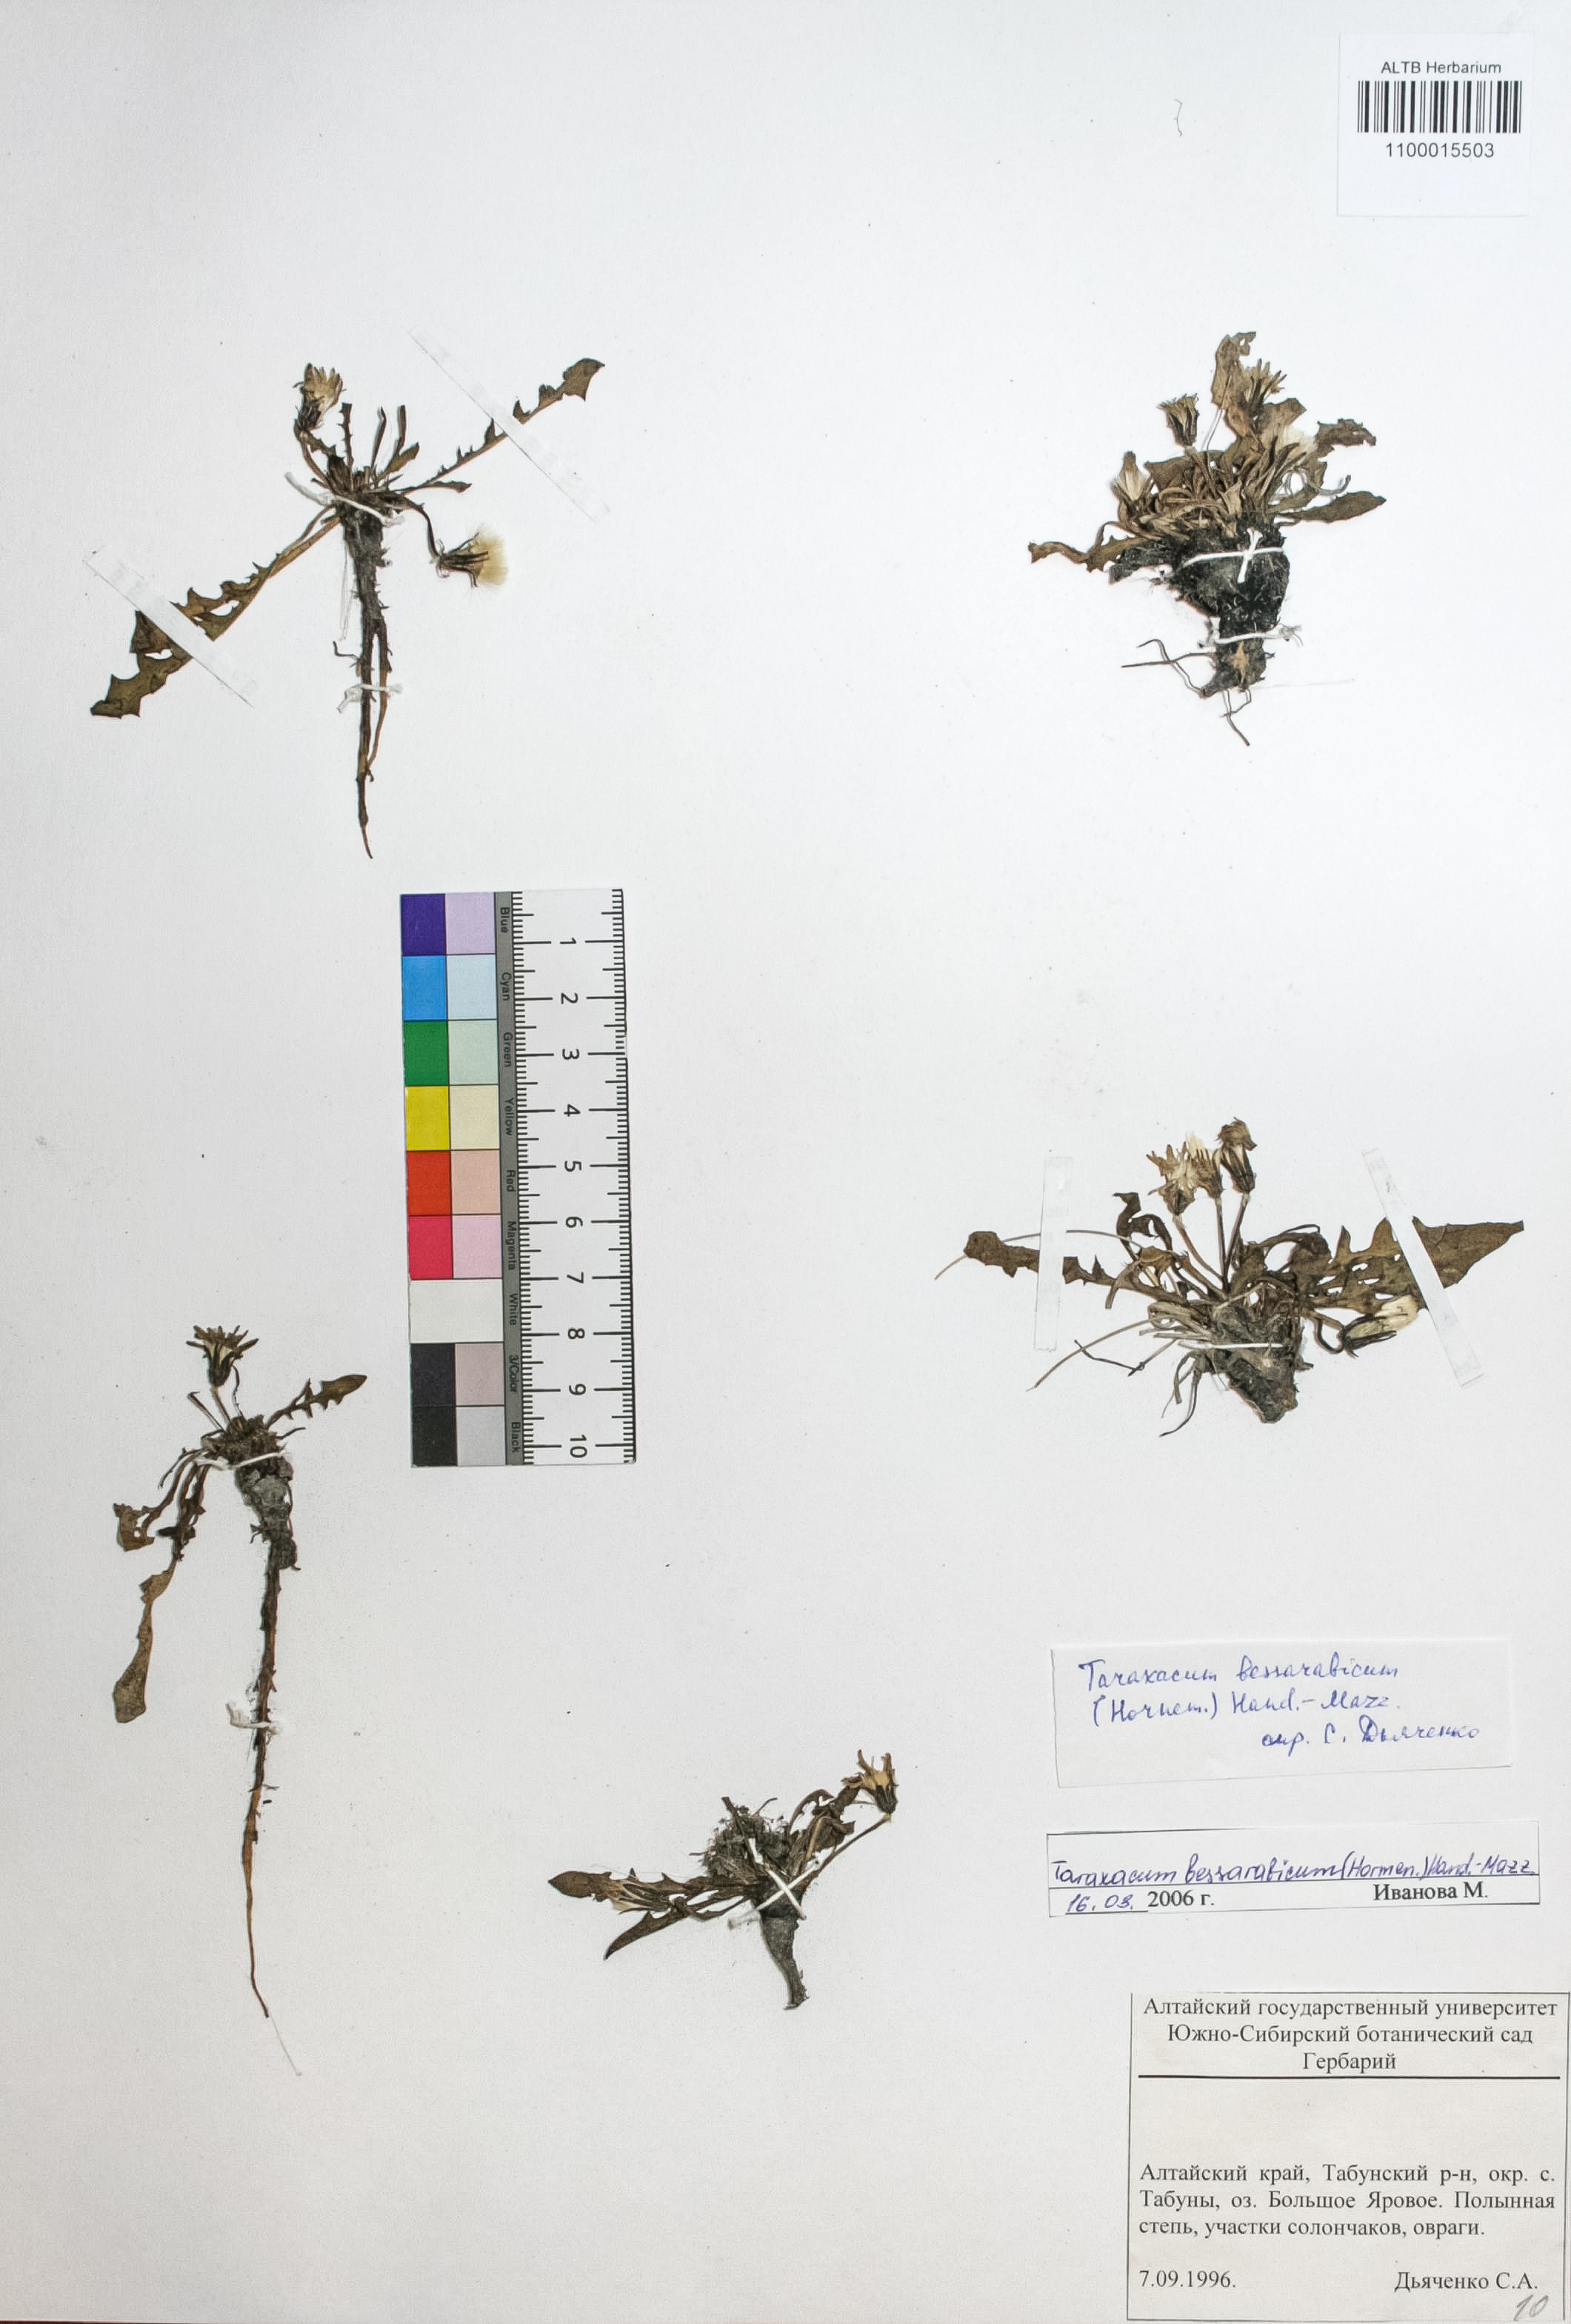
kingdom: Plantae
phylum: Tracheophyta
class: Magnoliopsida
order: Asterales
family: Asteraceae
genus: Taraxacum
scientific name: Taraxacum bessarabicum
